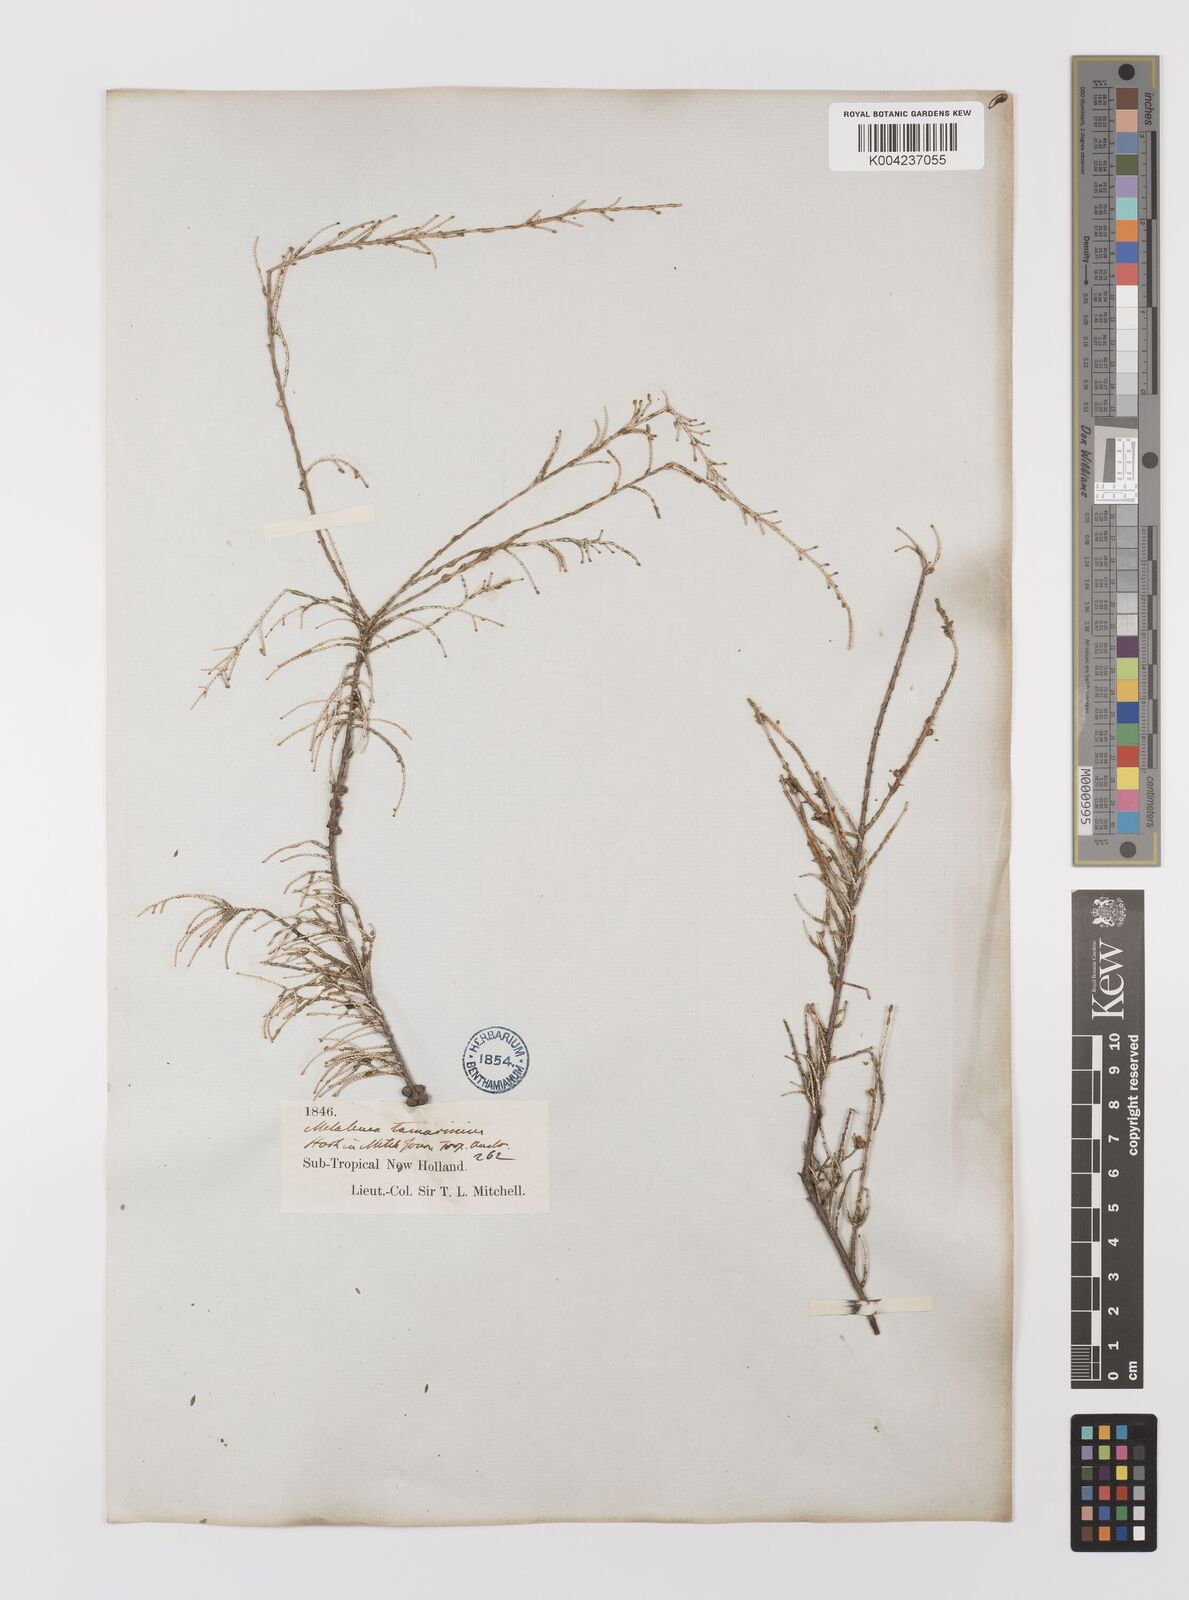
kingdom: Plantae
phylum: Tracheophyta
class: Magnoliopsida
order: Myrtales
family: Myrtaceae
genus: Melaleuca
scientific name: Melaleuca tamariscina
